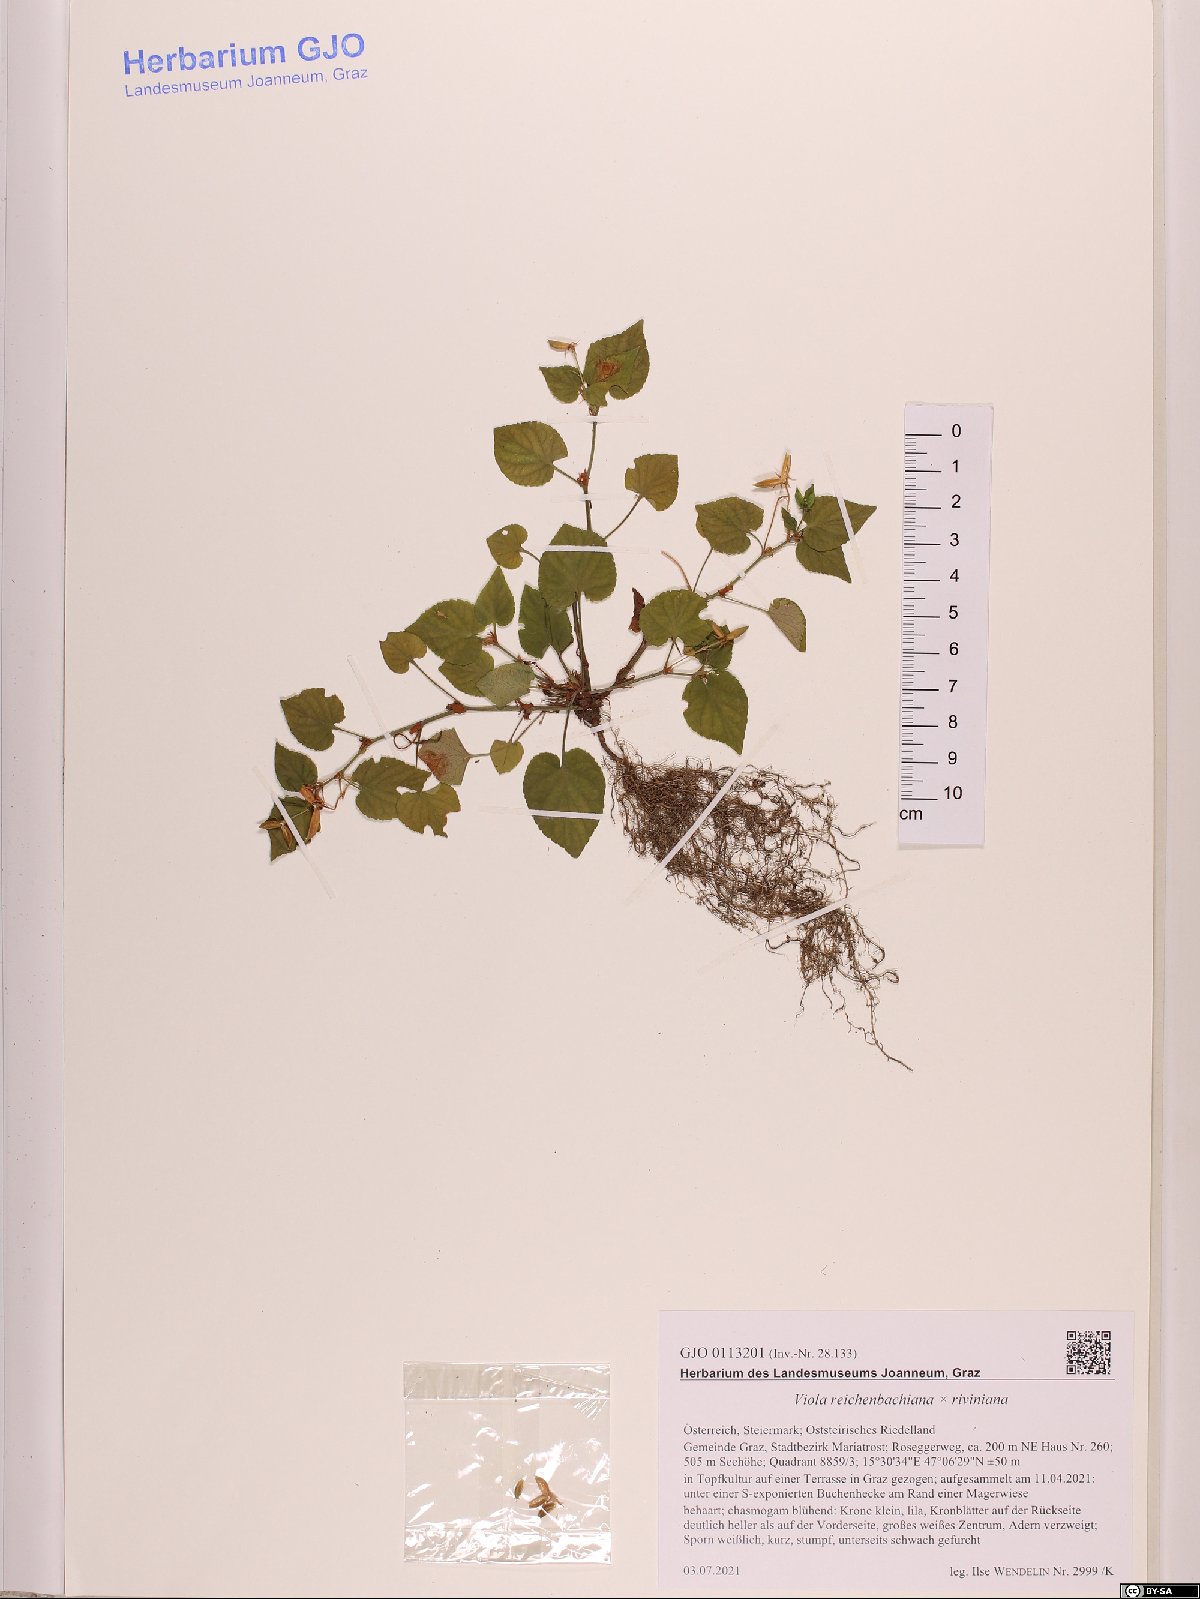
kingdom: Plantae
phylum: Tracheophyta
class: Magnoliopsida
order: Malpighiales
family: Violaceae
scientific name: Violaceae
